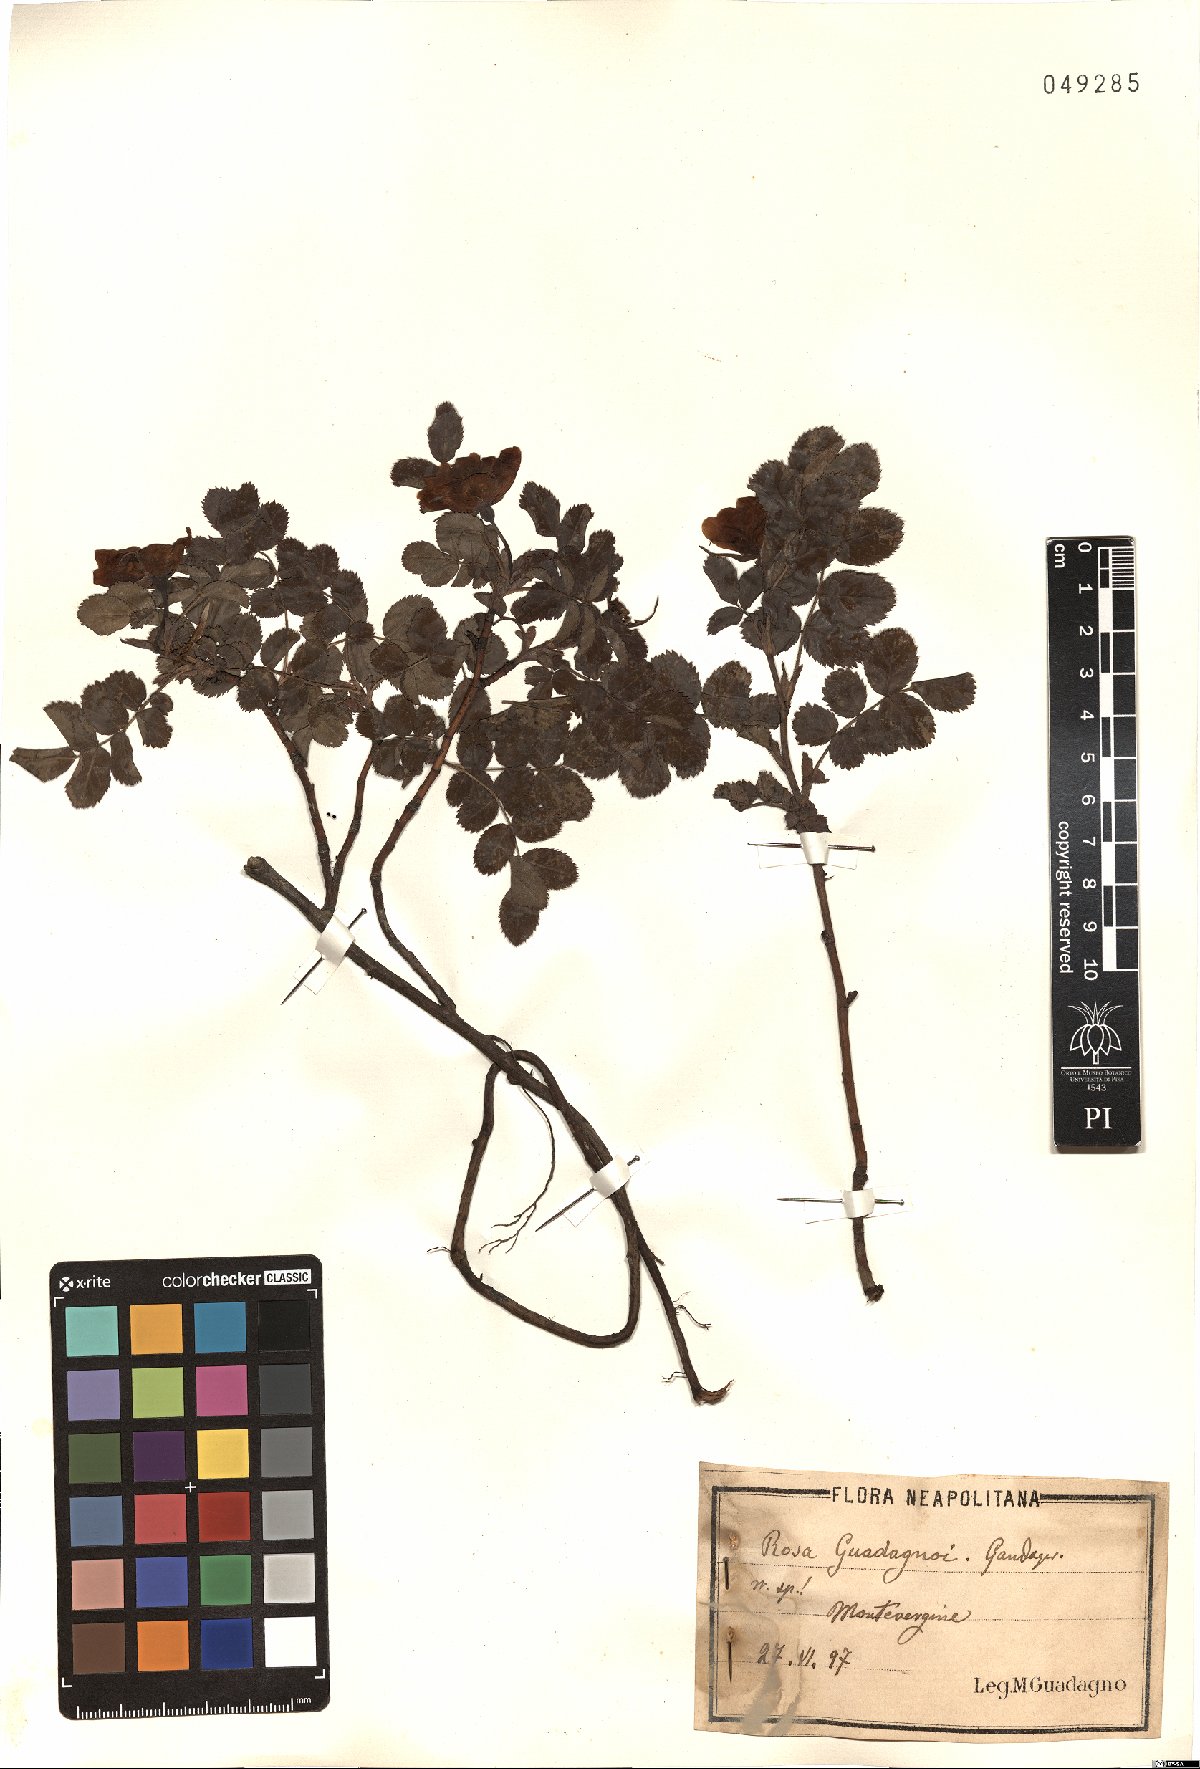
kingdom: Plantae
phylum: Tracheophyta
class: Magnoliopsida
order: Rosales
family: Rosaceae
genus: Rosa
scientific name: Rosa
